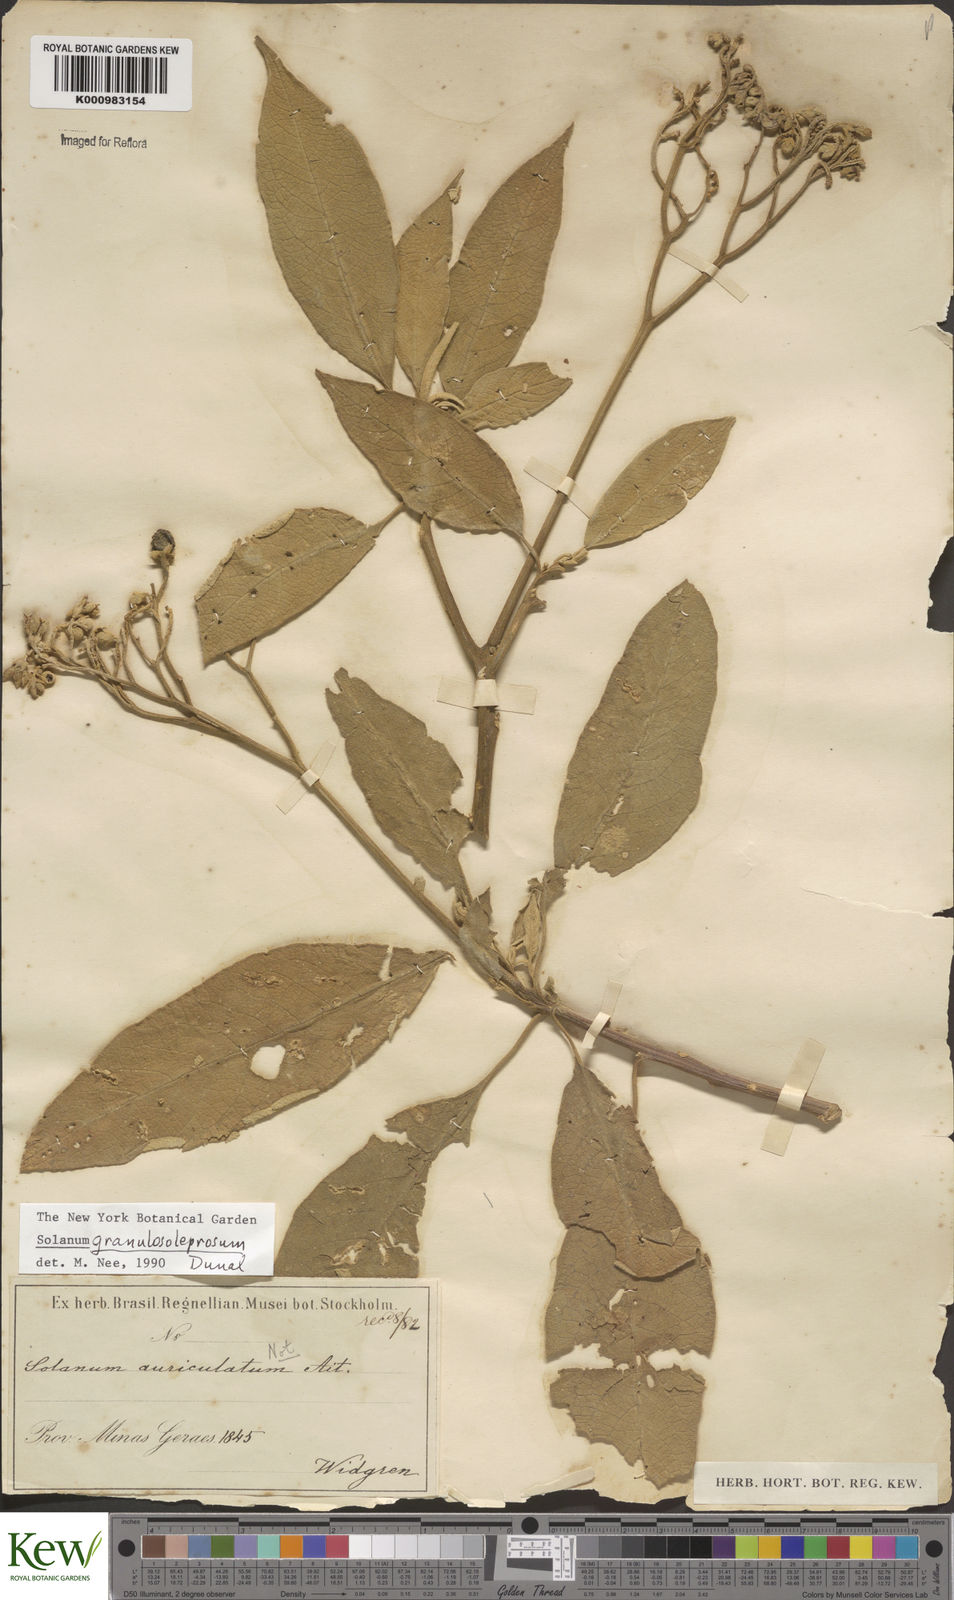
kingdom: Plantae
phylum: Tracheophyta
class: Magnoliopsida
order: Solanales
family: Solanaceae
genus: Solanum
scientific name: Solanum granulosoleprosum
